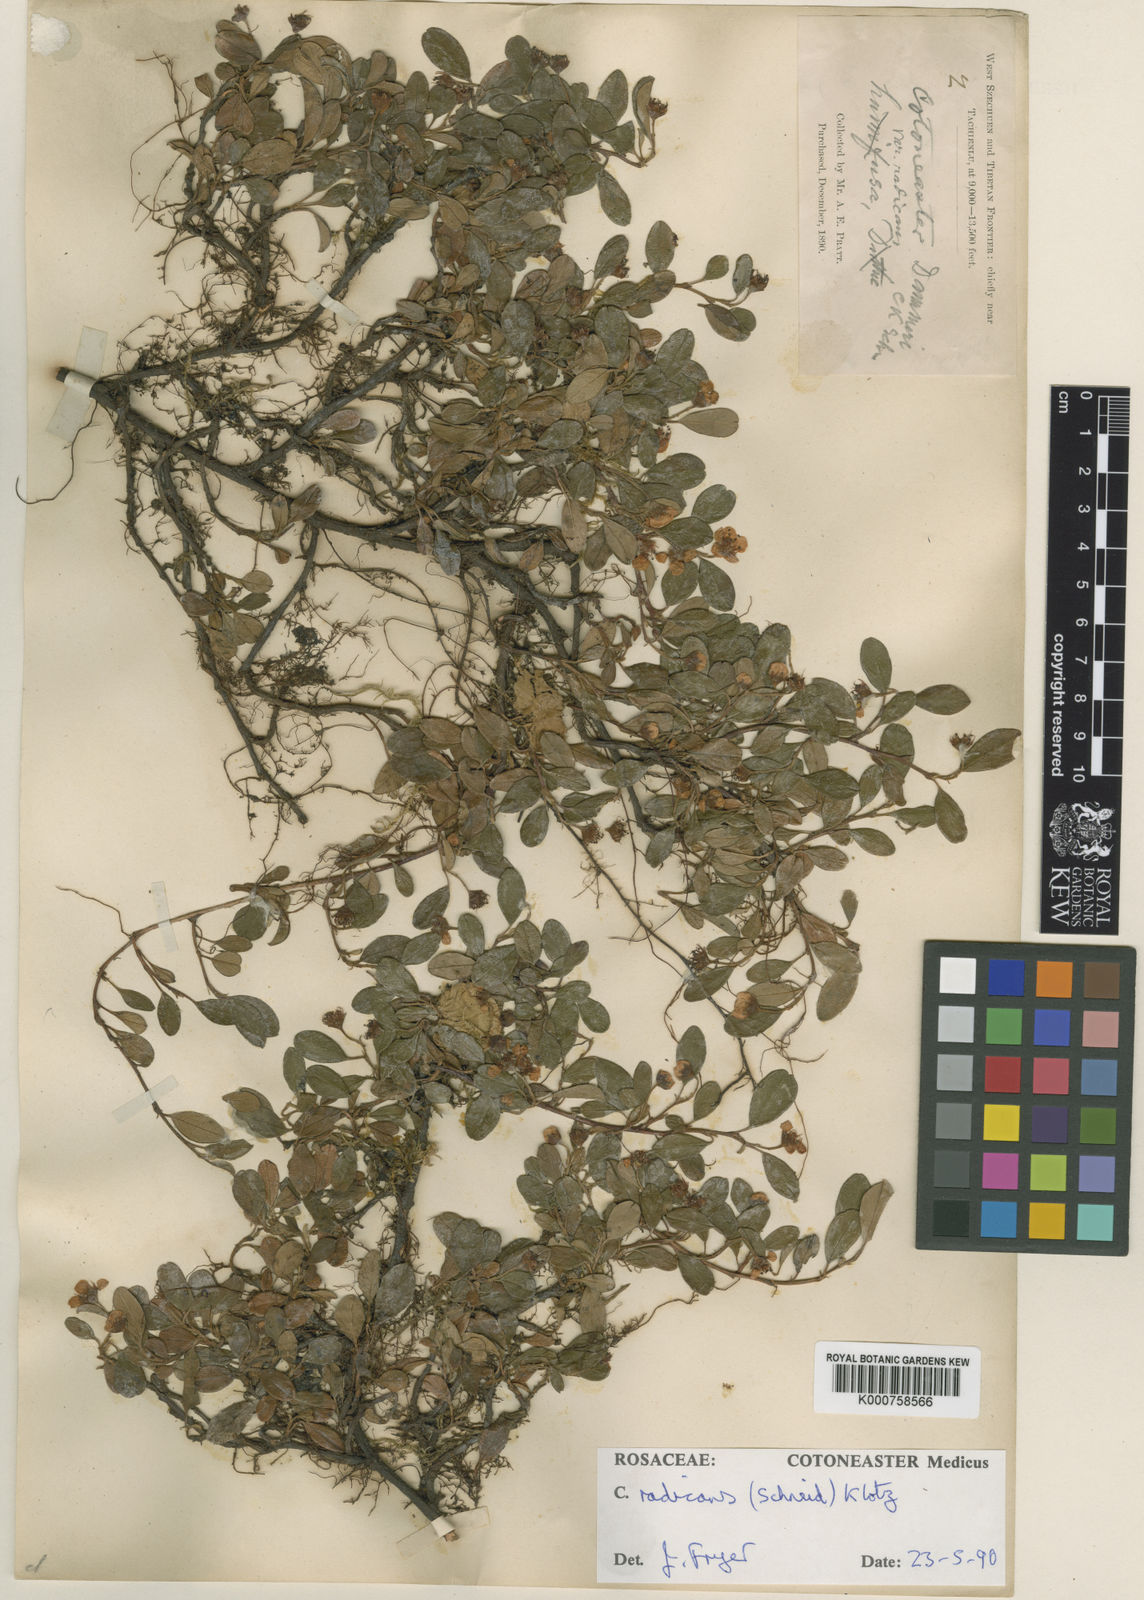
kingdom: Plantae
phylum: Tracheophyta
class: Magnoliopsida
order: Rosales
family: Rosaceae
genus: Cotoneaster
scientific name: Cotoneaster dammeri
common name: Bearberry cotoneaster
